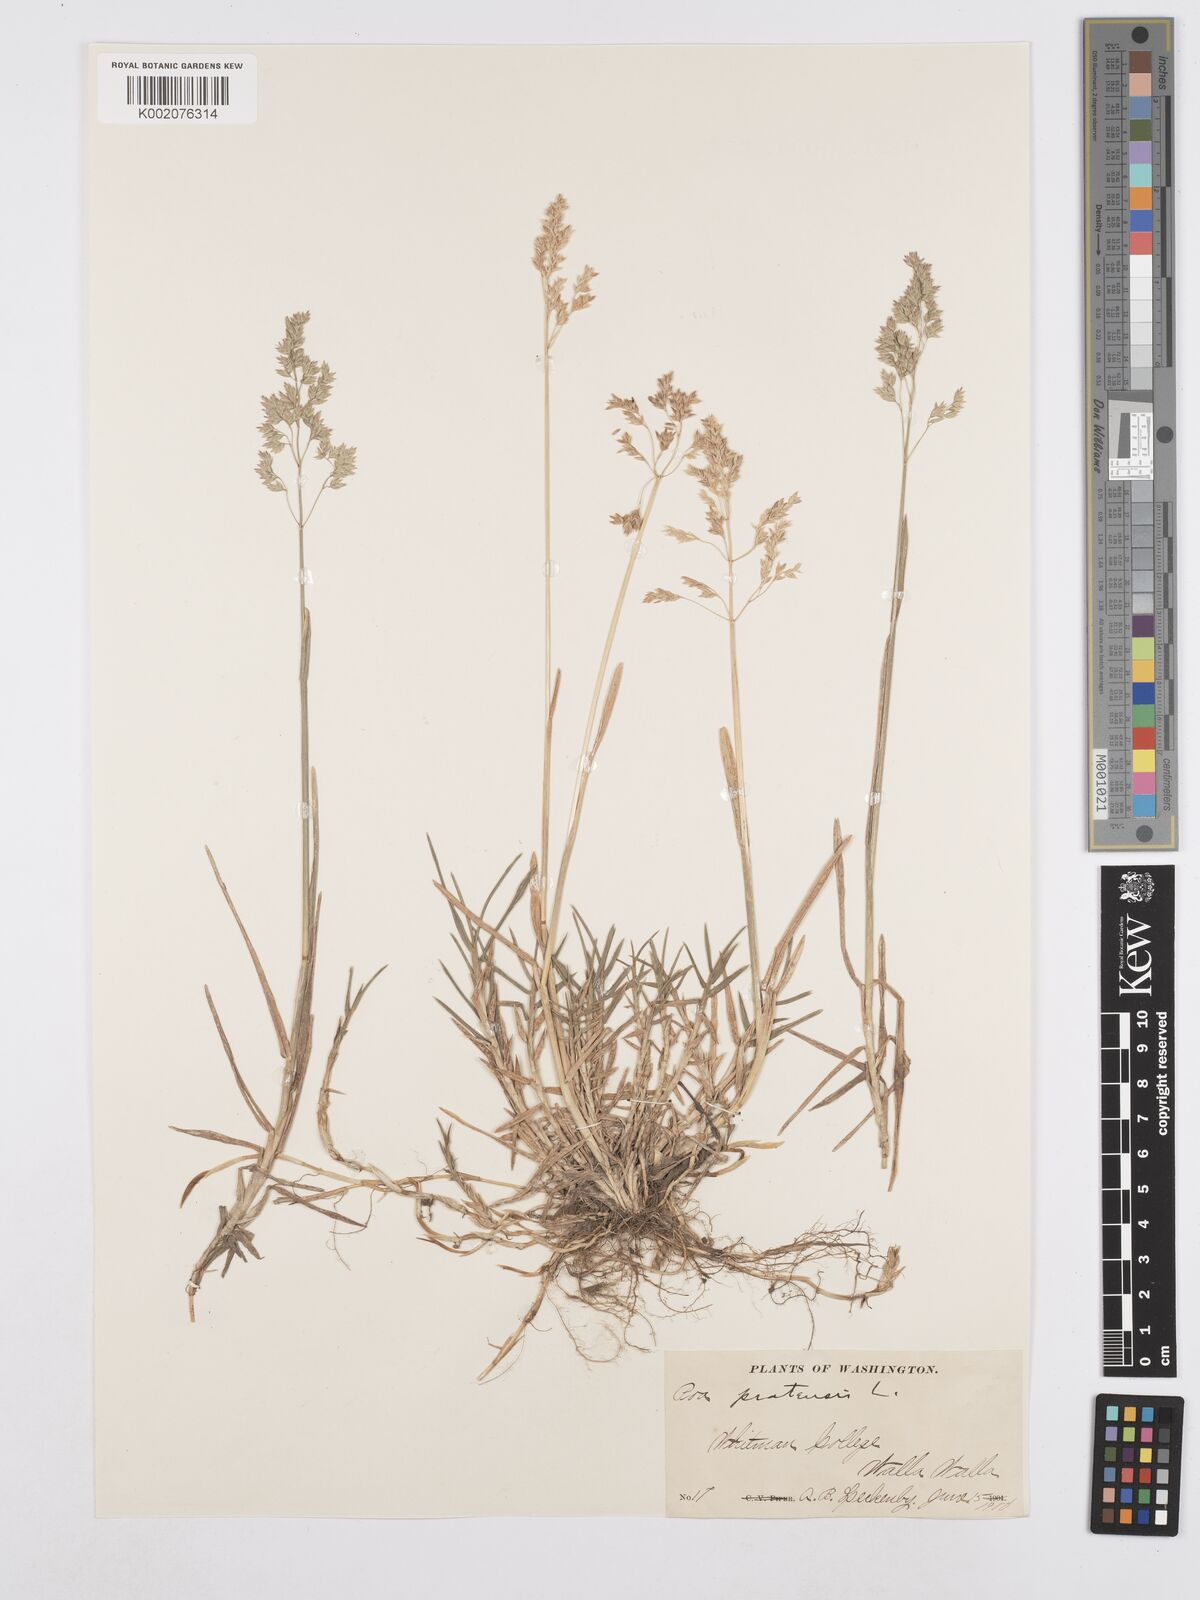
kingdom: Plantae
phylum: Tracheophyta
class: Liliopsida
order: Poales
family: Poaceae
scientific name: Poaceae
